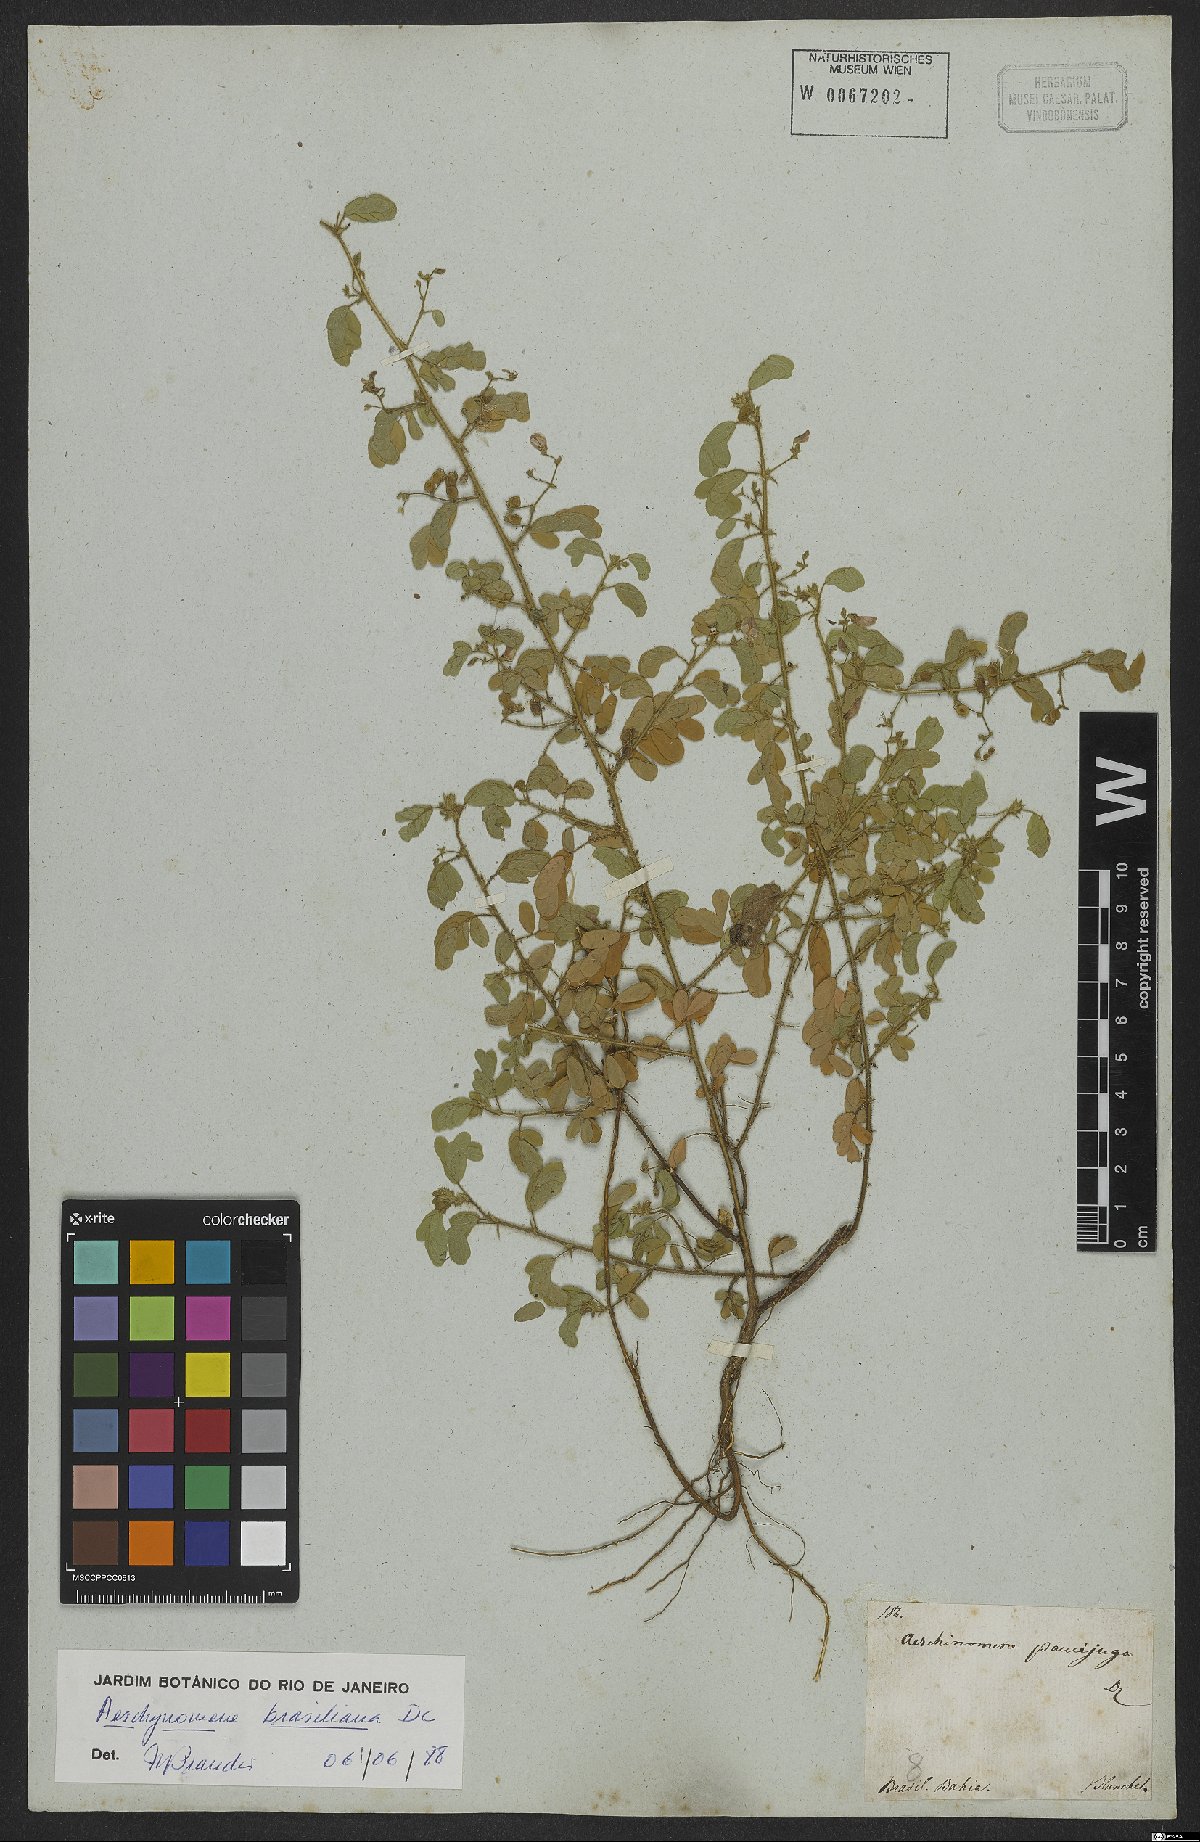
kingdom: Plantae
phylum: Tracheophyta
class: Magnoliopsida
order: Fabales
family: Fabaceae
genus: Ctenodon
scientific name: Ctenodon brasilianus
